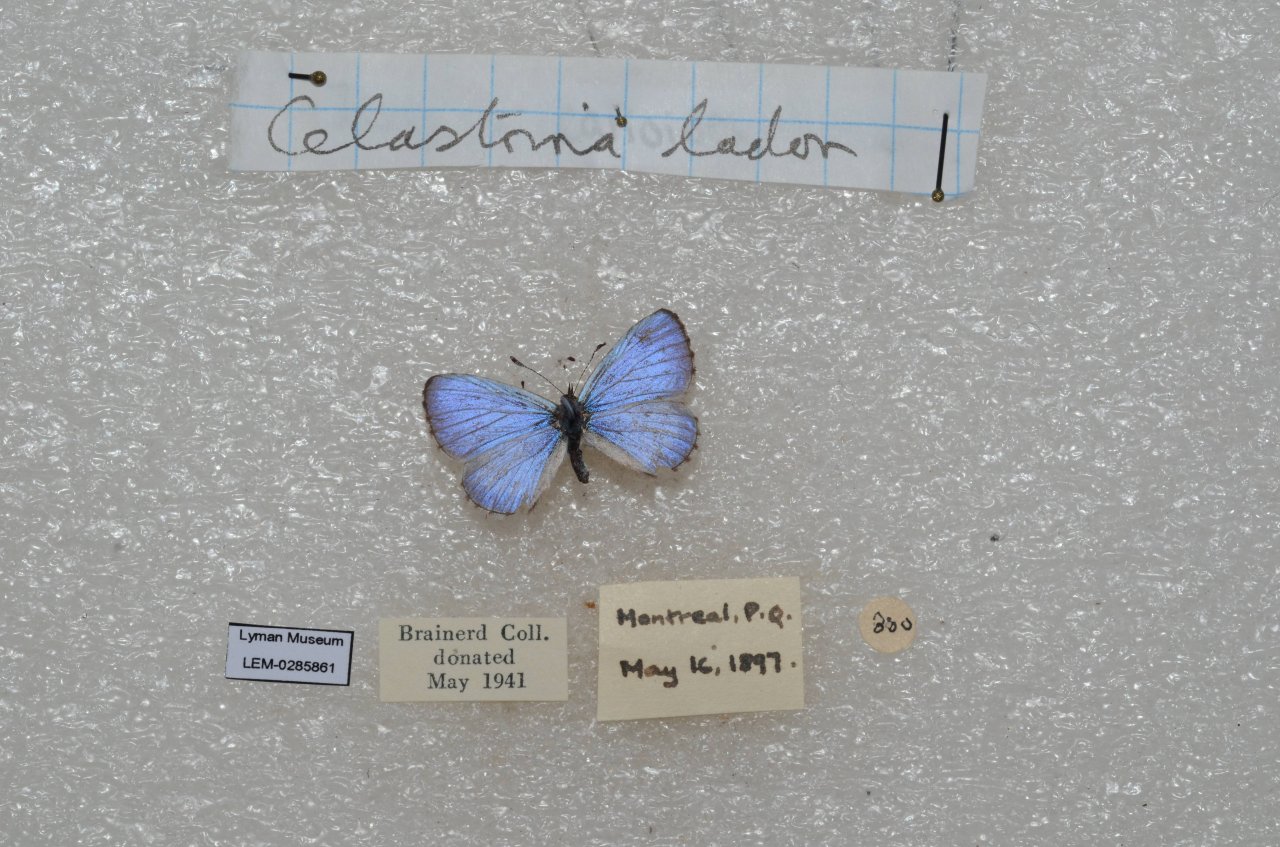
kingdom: Animalia
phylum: Arthropoda
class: Insecta
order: Lepidoptera
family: Lycaenidae
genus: Celastrina
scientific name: Celastrina lucia
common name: Northern Spring Azure
